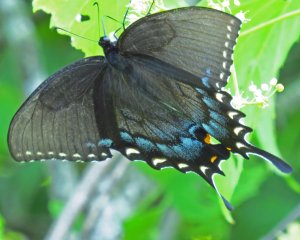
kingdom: Animalia
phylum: Arthropoda
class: Insecta
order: Lepidoptera
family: Papilionidae
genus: Pterourus
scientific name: Pterourus glaucus
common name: Eastern Tiger Swallowtail
